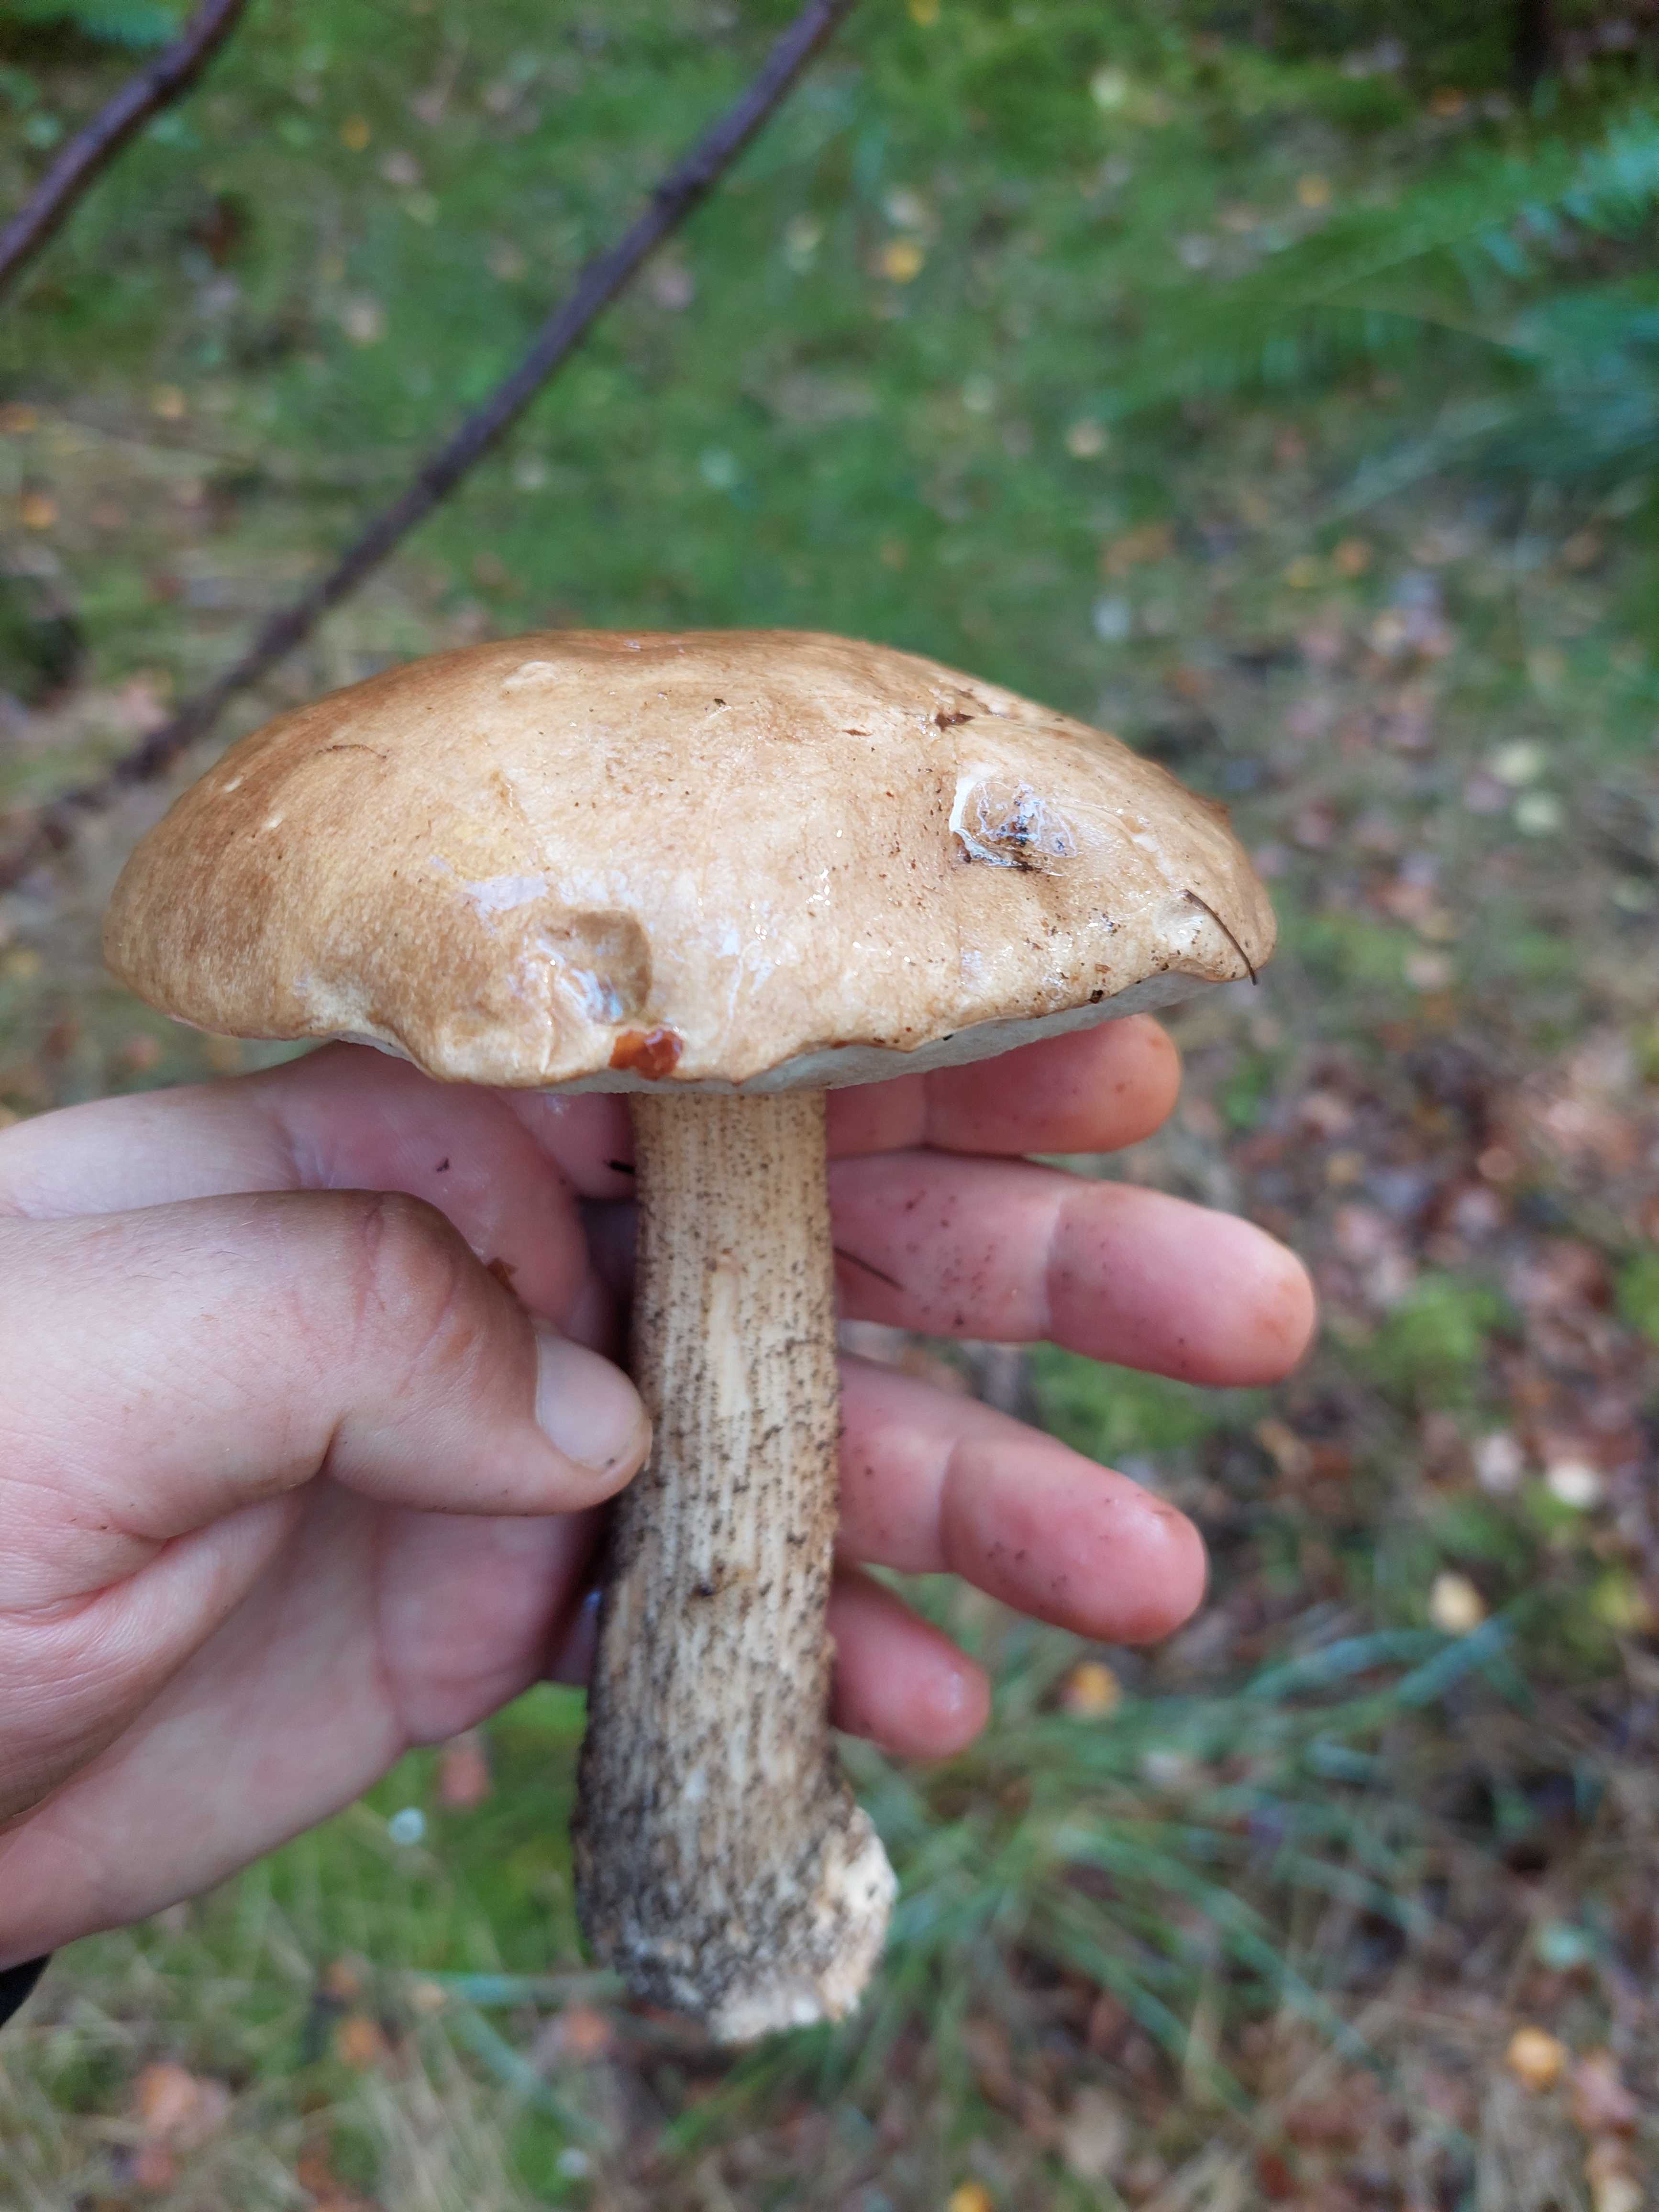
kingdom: Fungi
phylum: Basidiomycota
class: Agaricomycetes
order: Boletales
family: Boletaceae
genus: Leccinum
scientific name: Leccinum
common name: skælrørhat
